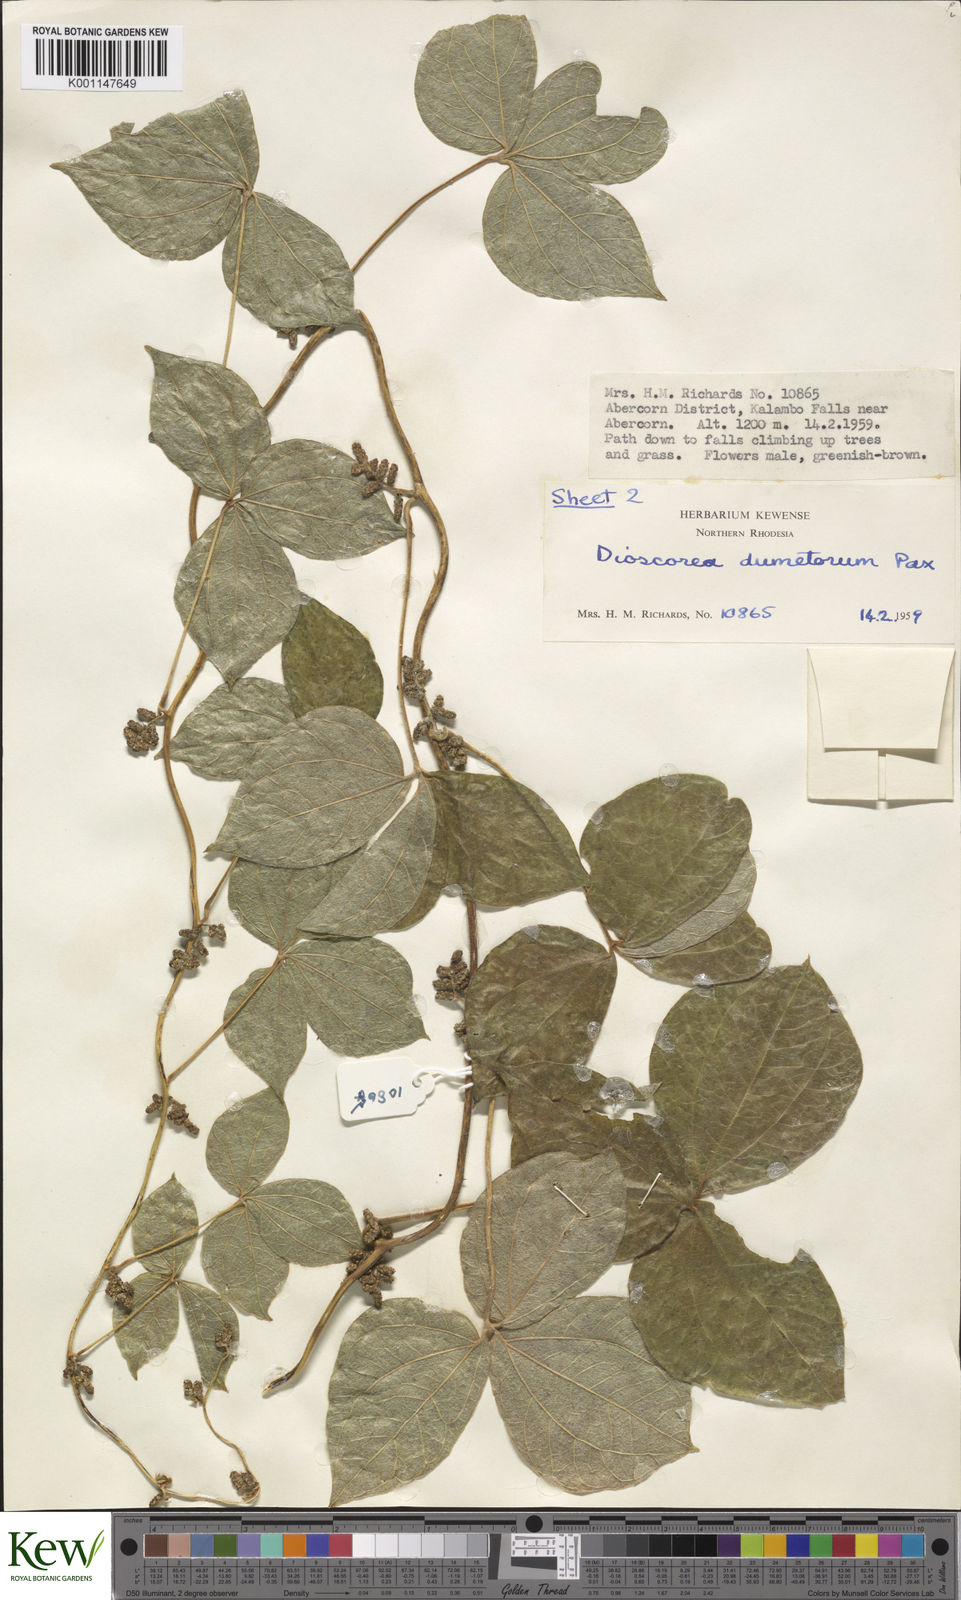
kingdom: Plantae
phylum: Tracheophyta
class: Liliopsida
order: Dioscoreales
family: Dioscoreaceae
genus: Dioscorea
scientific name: Dioscorea dumetorum
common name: African bitter yam
